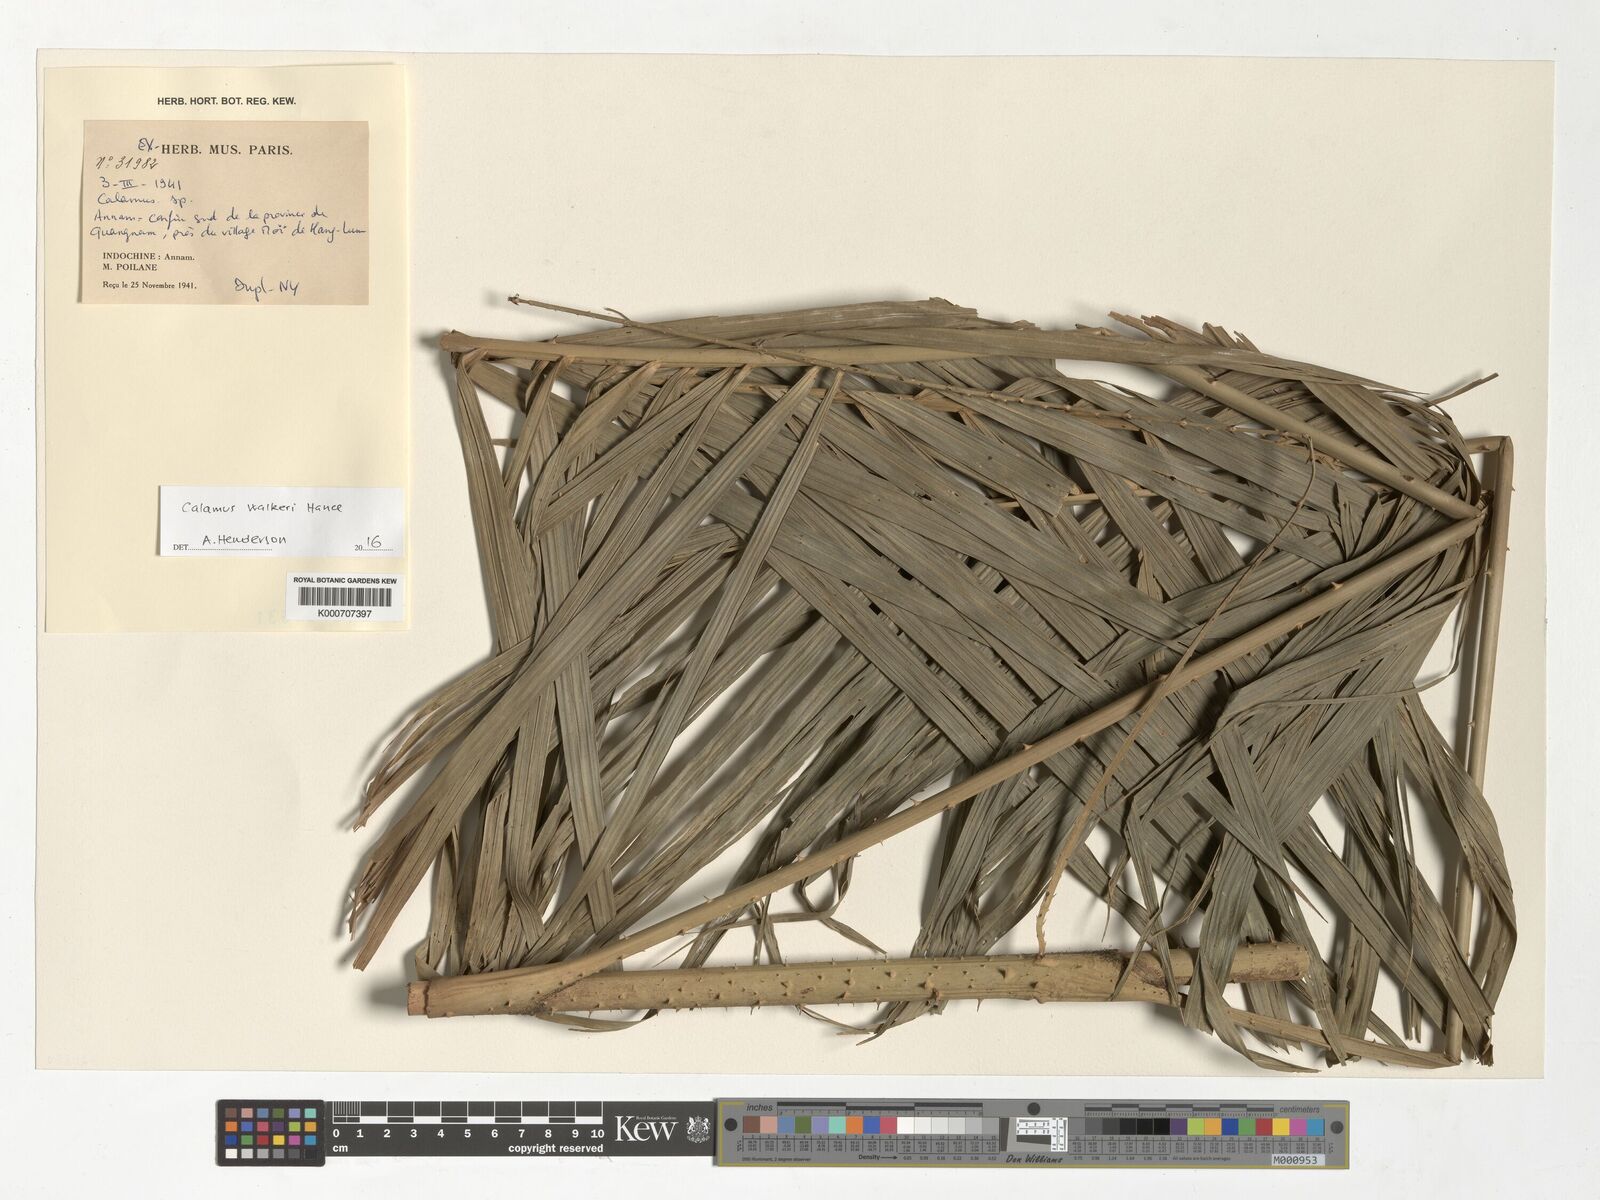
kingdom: Plantae
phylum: Tracheophyta
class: Liliopsida
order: Arecales
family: Arecaceae
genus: Calamus
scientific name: Calamus walkeri
